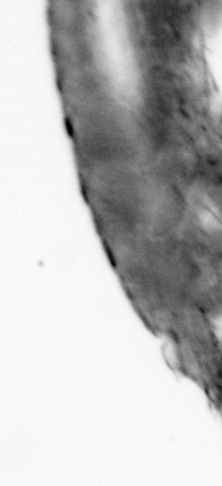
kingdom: Animalia
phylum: Arthropoda
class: Copepoda
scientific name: Copepoda
